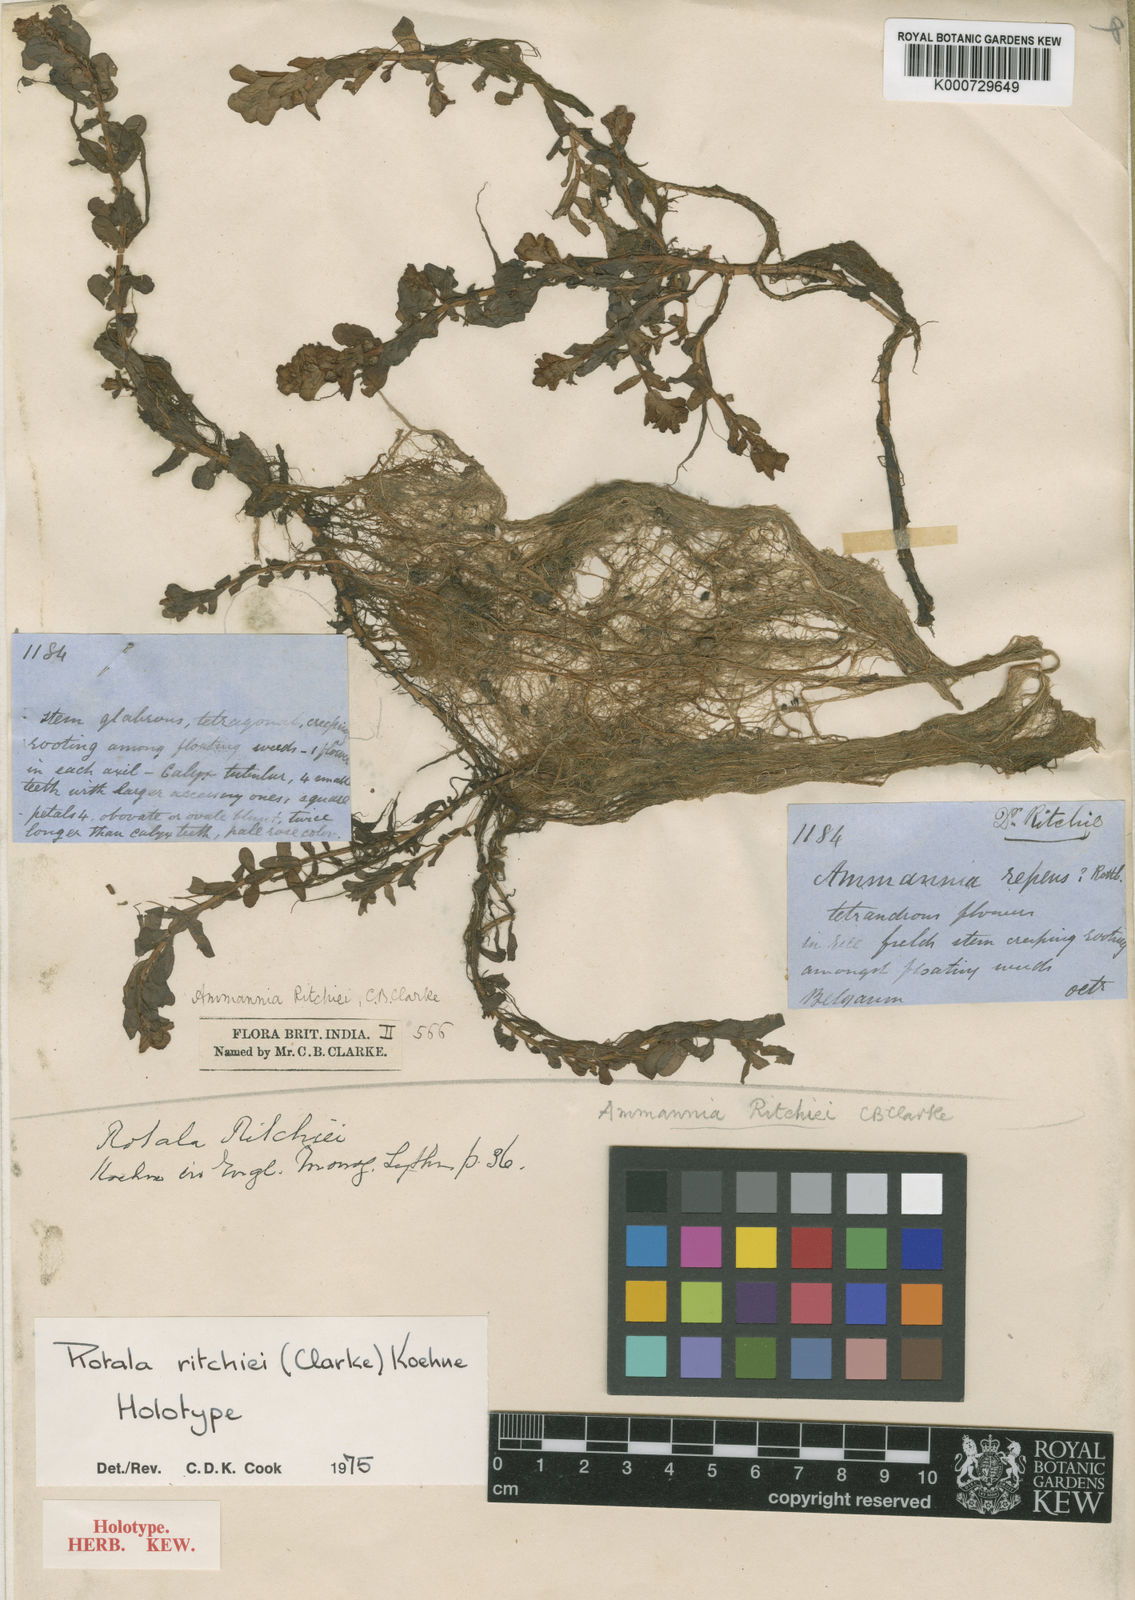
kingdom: Plantae
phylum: Tracheophyta
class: Magnoliopsida
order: Myrtales
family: Lythraceae
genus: Rotala
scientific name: Rotala ritchiei
